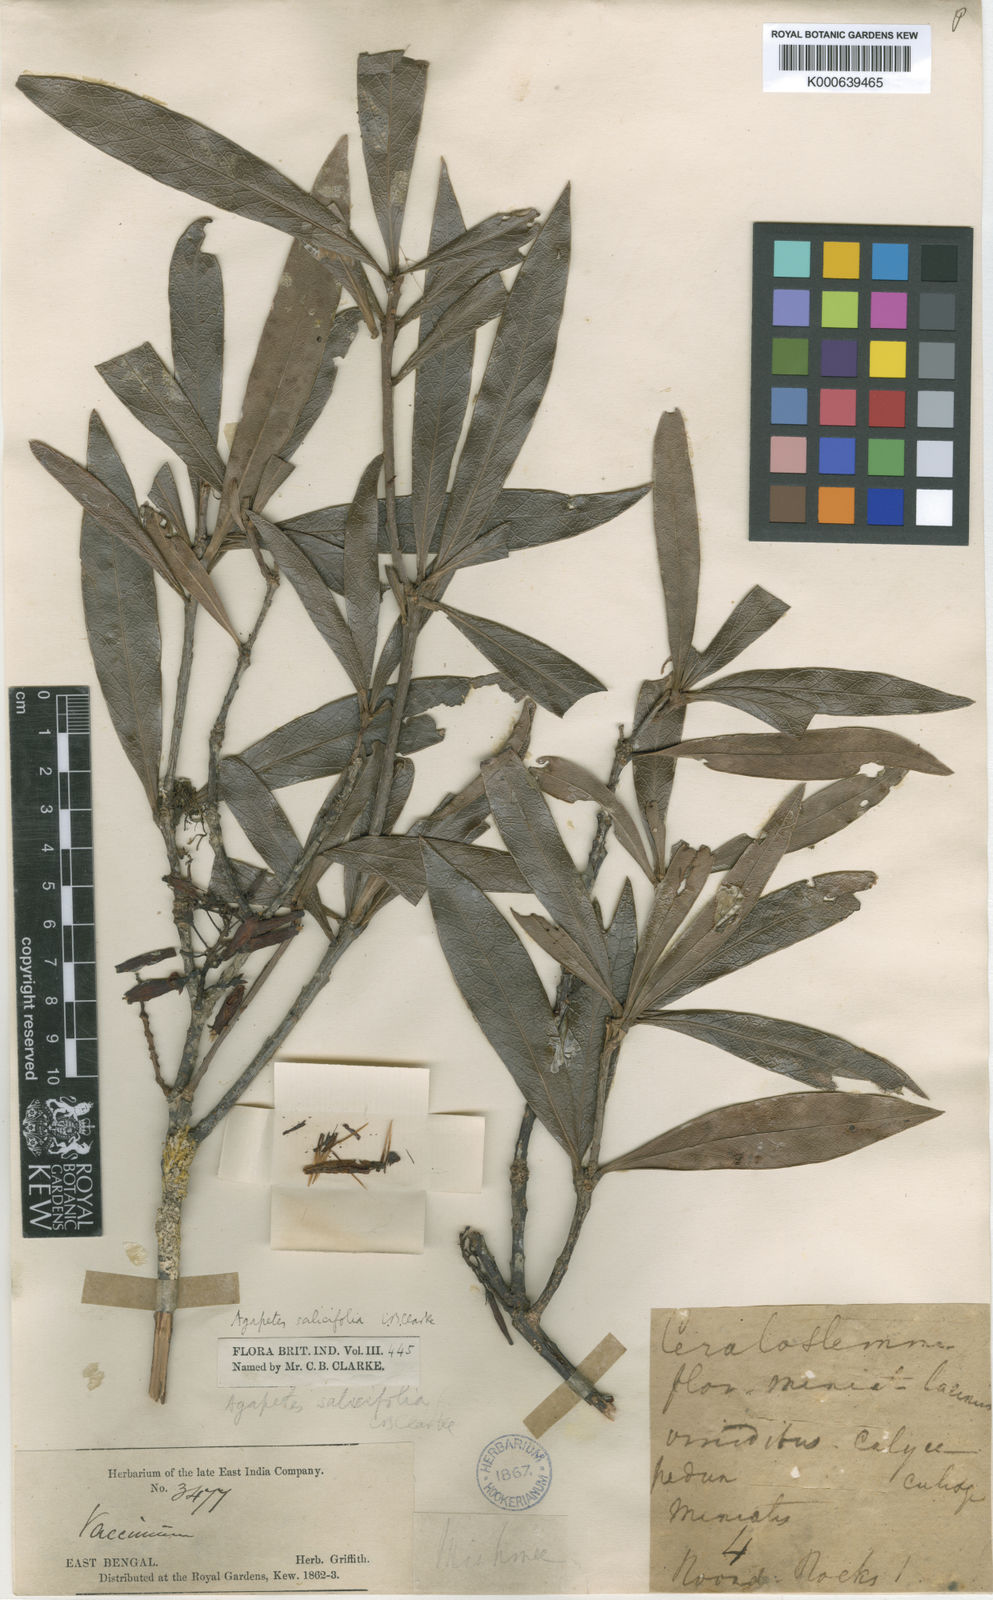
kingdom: Plantae
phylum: Tracheophyta
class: Magnoliopsida
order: Ericales
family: Ericaceae
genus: Agapetes
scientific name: Agapetes salicifolia
